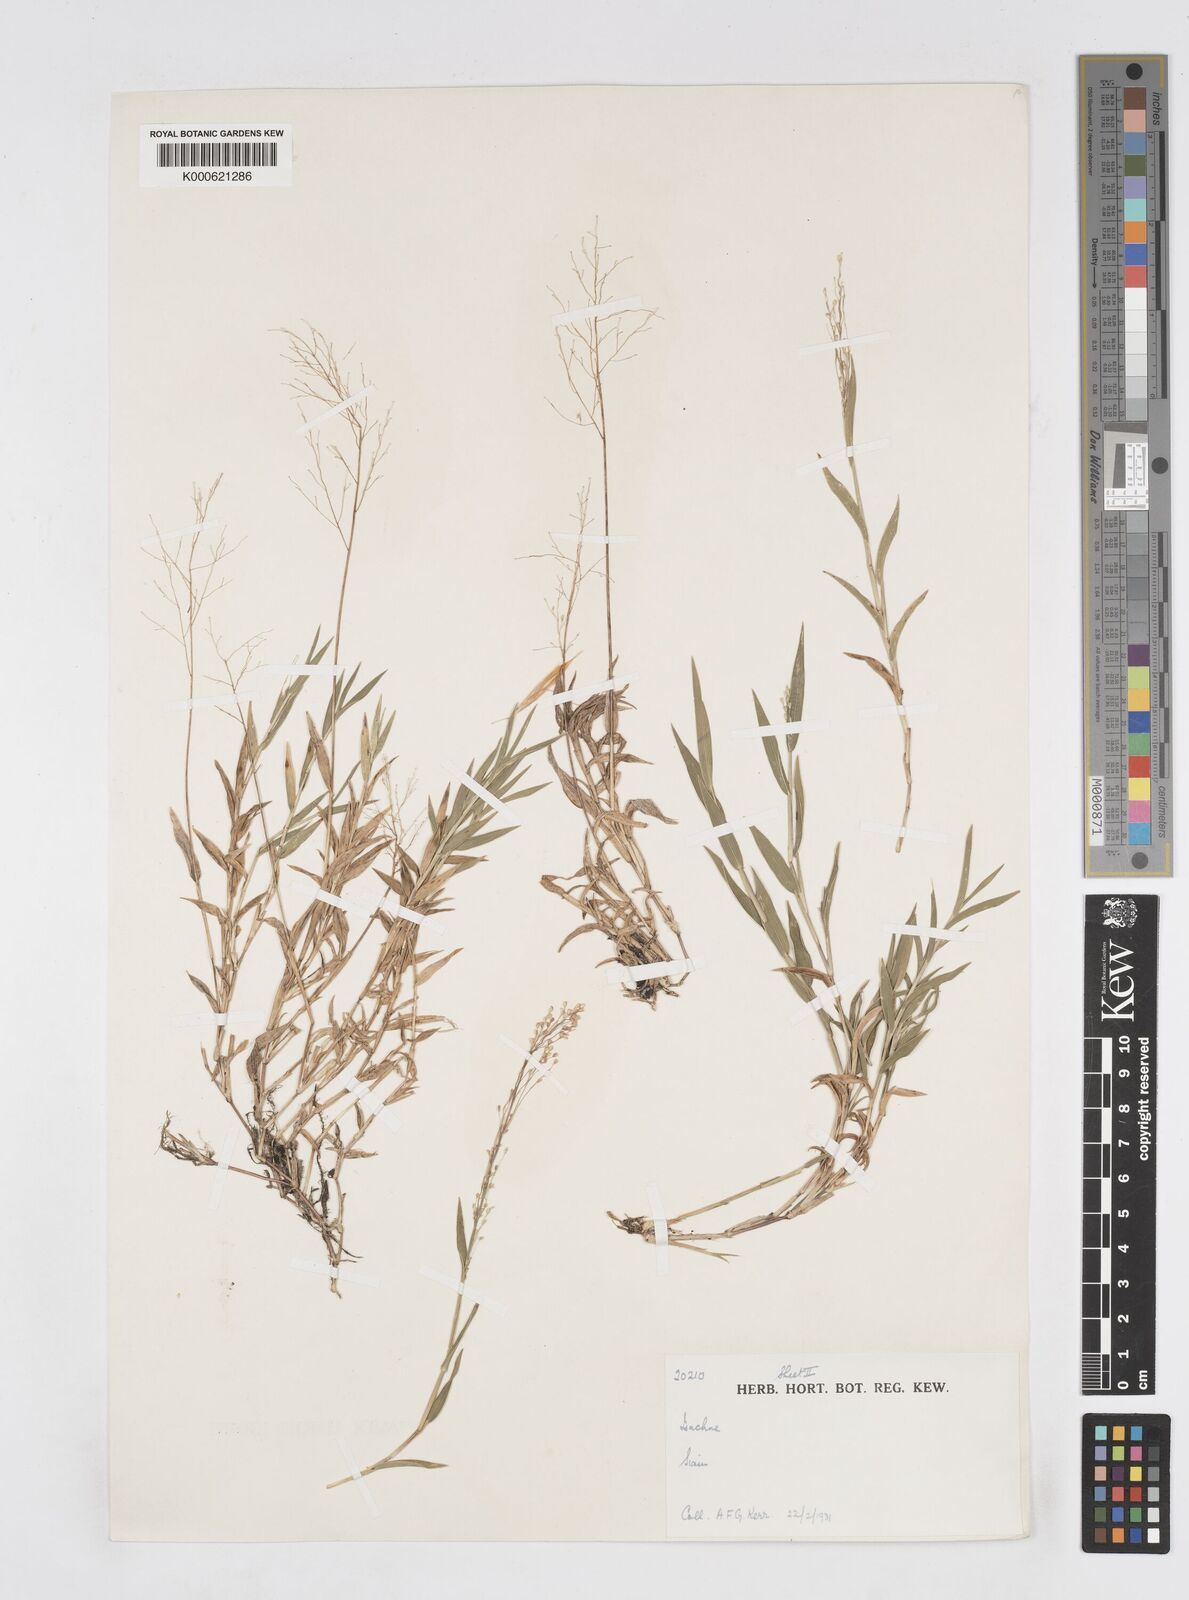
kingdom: Plantae
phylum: Tracheophyta
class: Liliopsida
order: Poales
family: Poaceae
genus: Isachne
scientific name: Isachne smitinandiana
